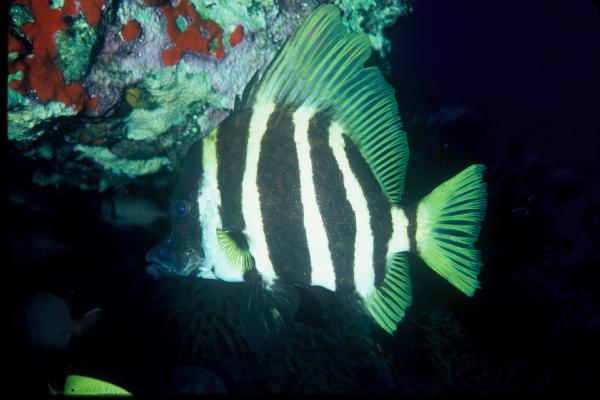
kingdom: Animalia
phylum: Chordata
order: Perciformes
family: Pentacerotidae
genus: Evistias
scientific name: Evistias acutirostris
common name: Striped boarfish
